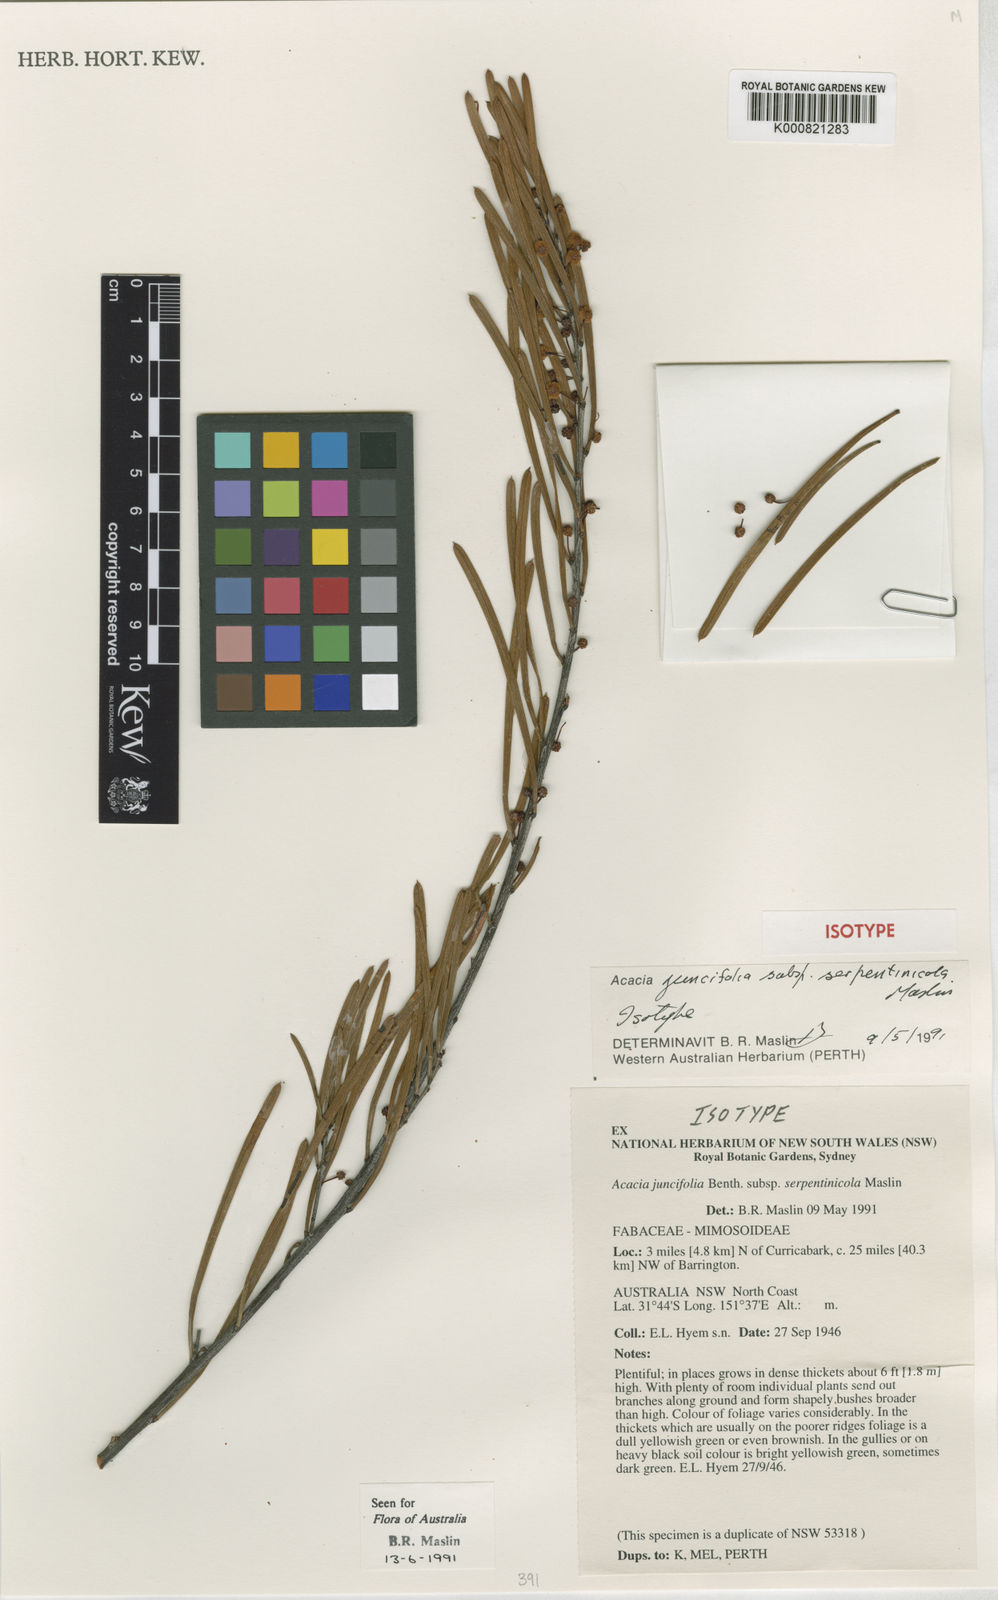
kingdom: Plantae
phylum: Tracheophyta
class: Magnoliopsida
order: Fabales
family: Fabaceae
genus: Acacia
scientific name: Acacia serpentinicola
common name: Serpentinite wattle
